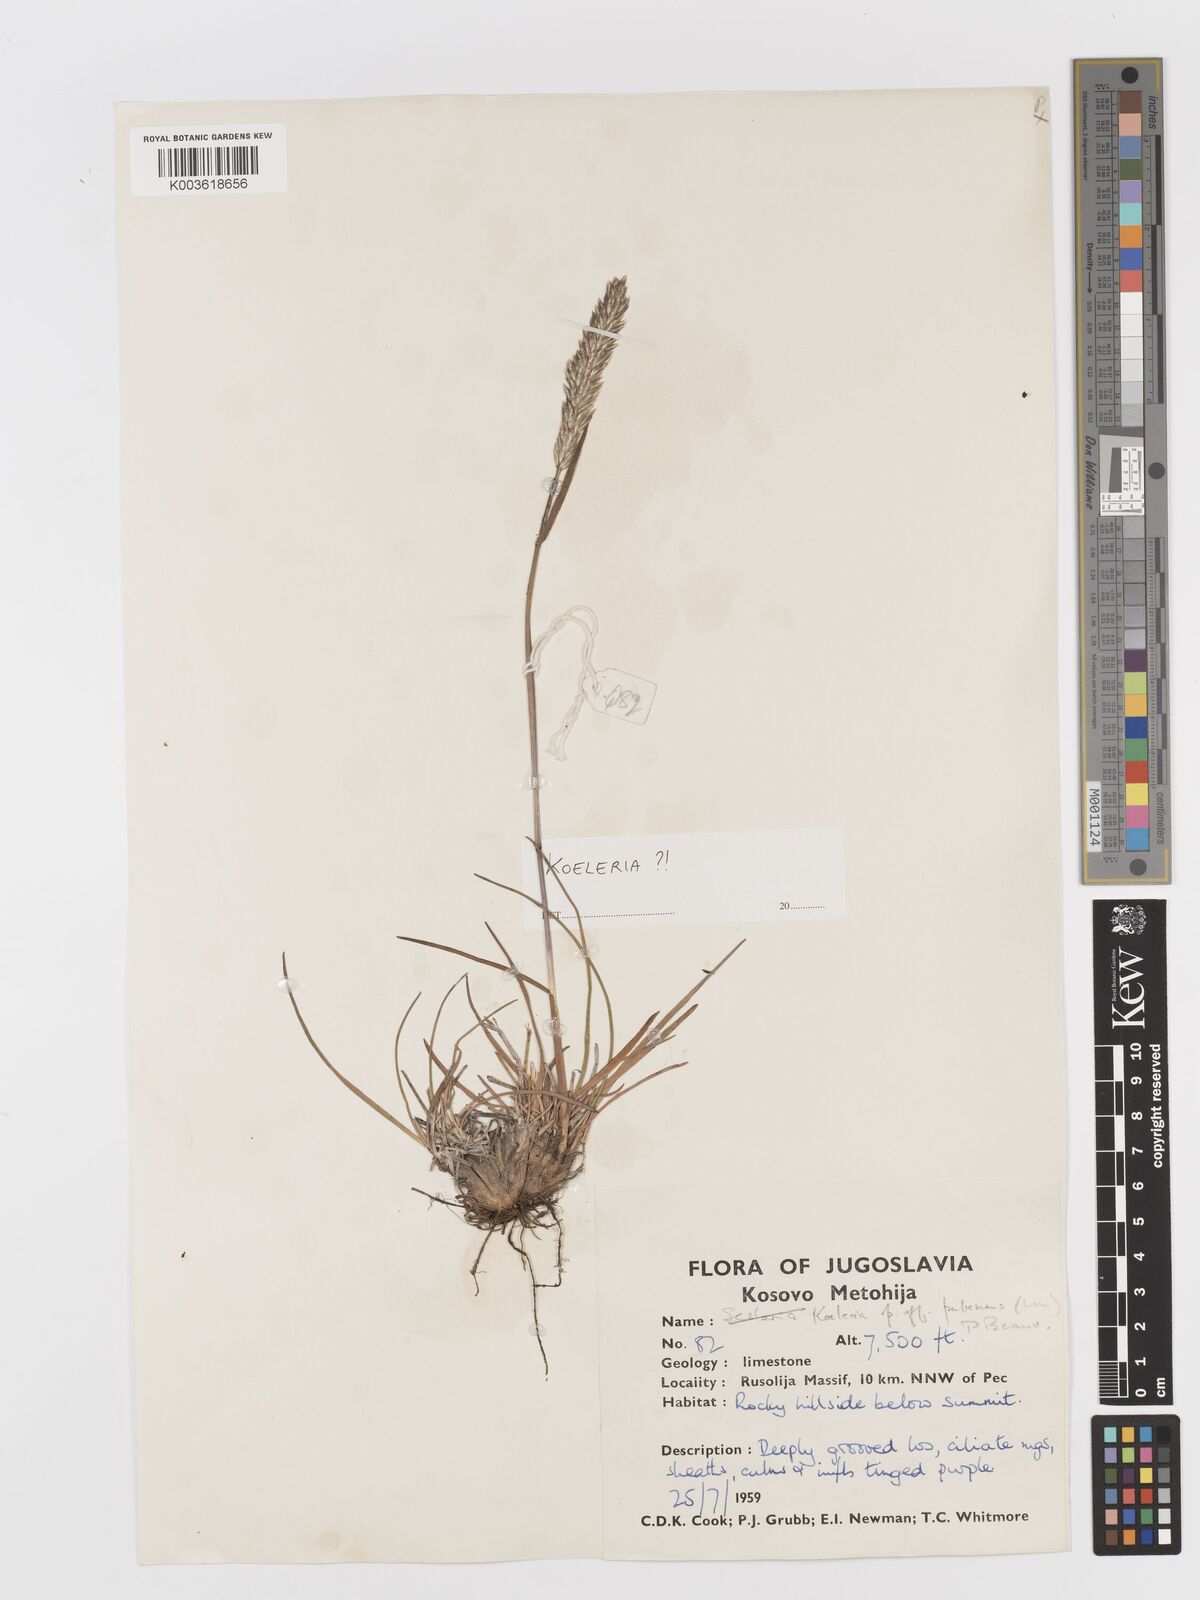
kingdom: Plantae
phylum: Tracheophyta
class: Liliopsida
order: Poales
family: Poaceae
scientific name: Poaceae
